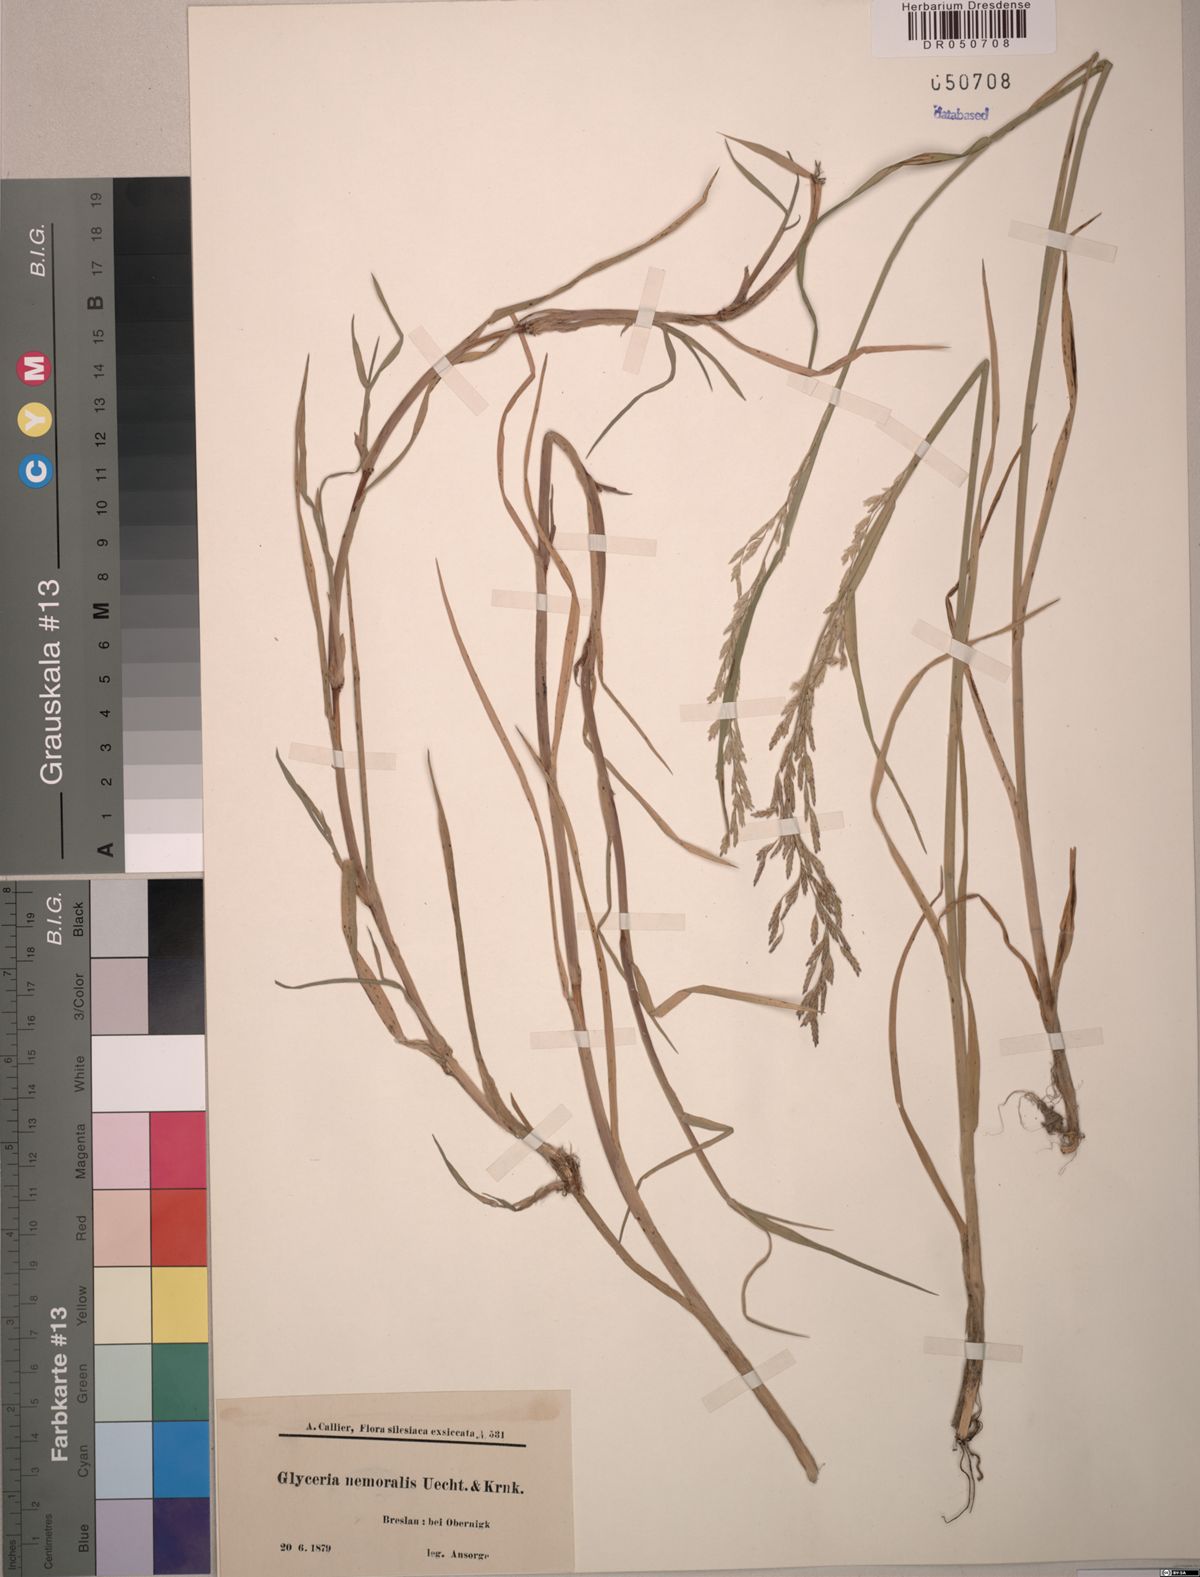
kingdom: Plantae
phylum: Tracheophyta
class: Liliopsida
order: Poales
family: Poaceae
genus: Glyceria
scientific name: Glyceria nemoralis
